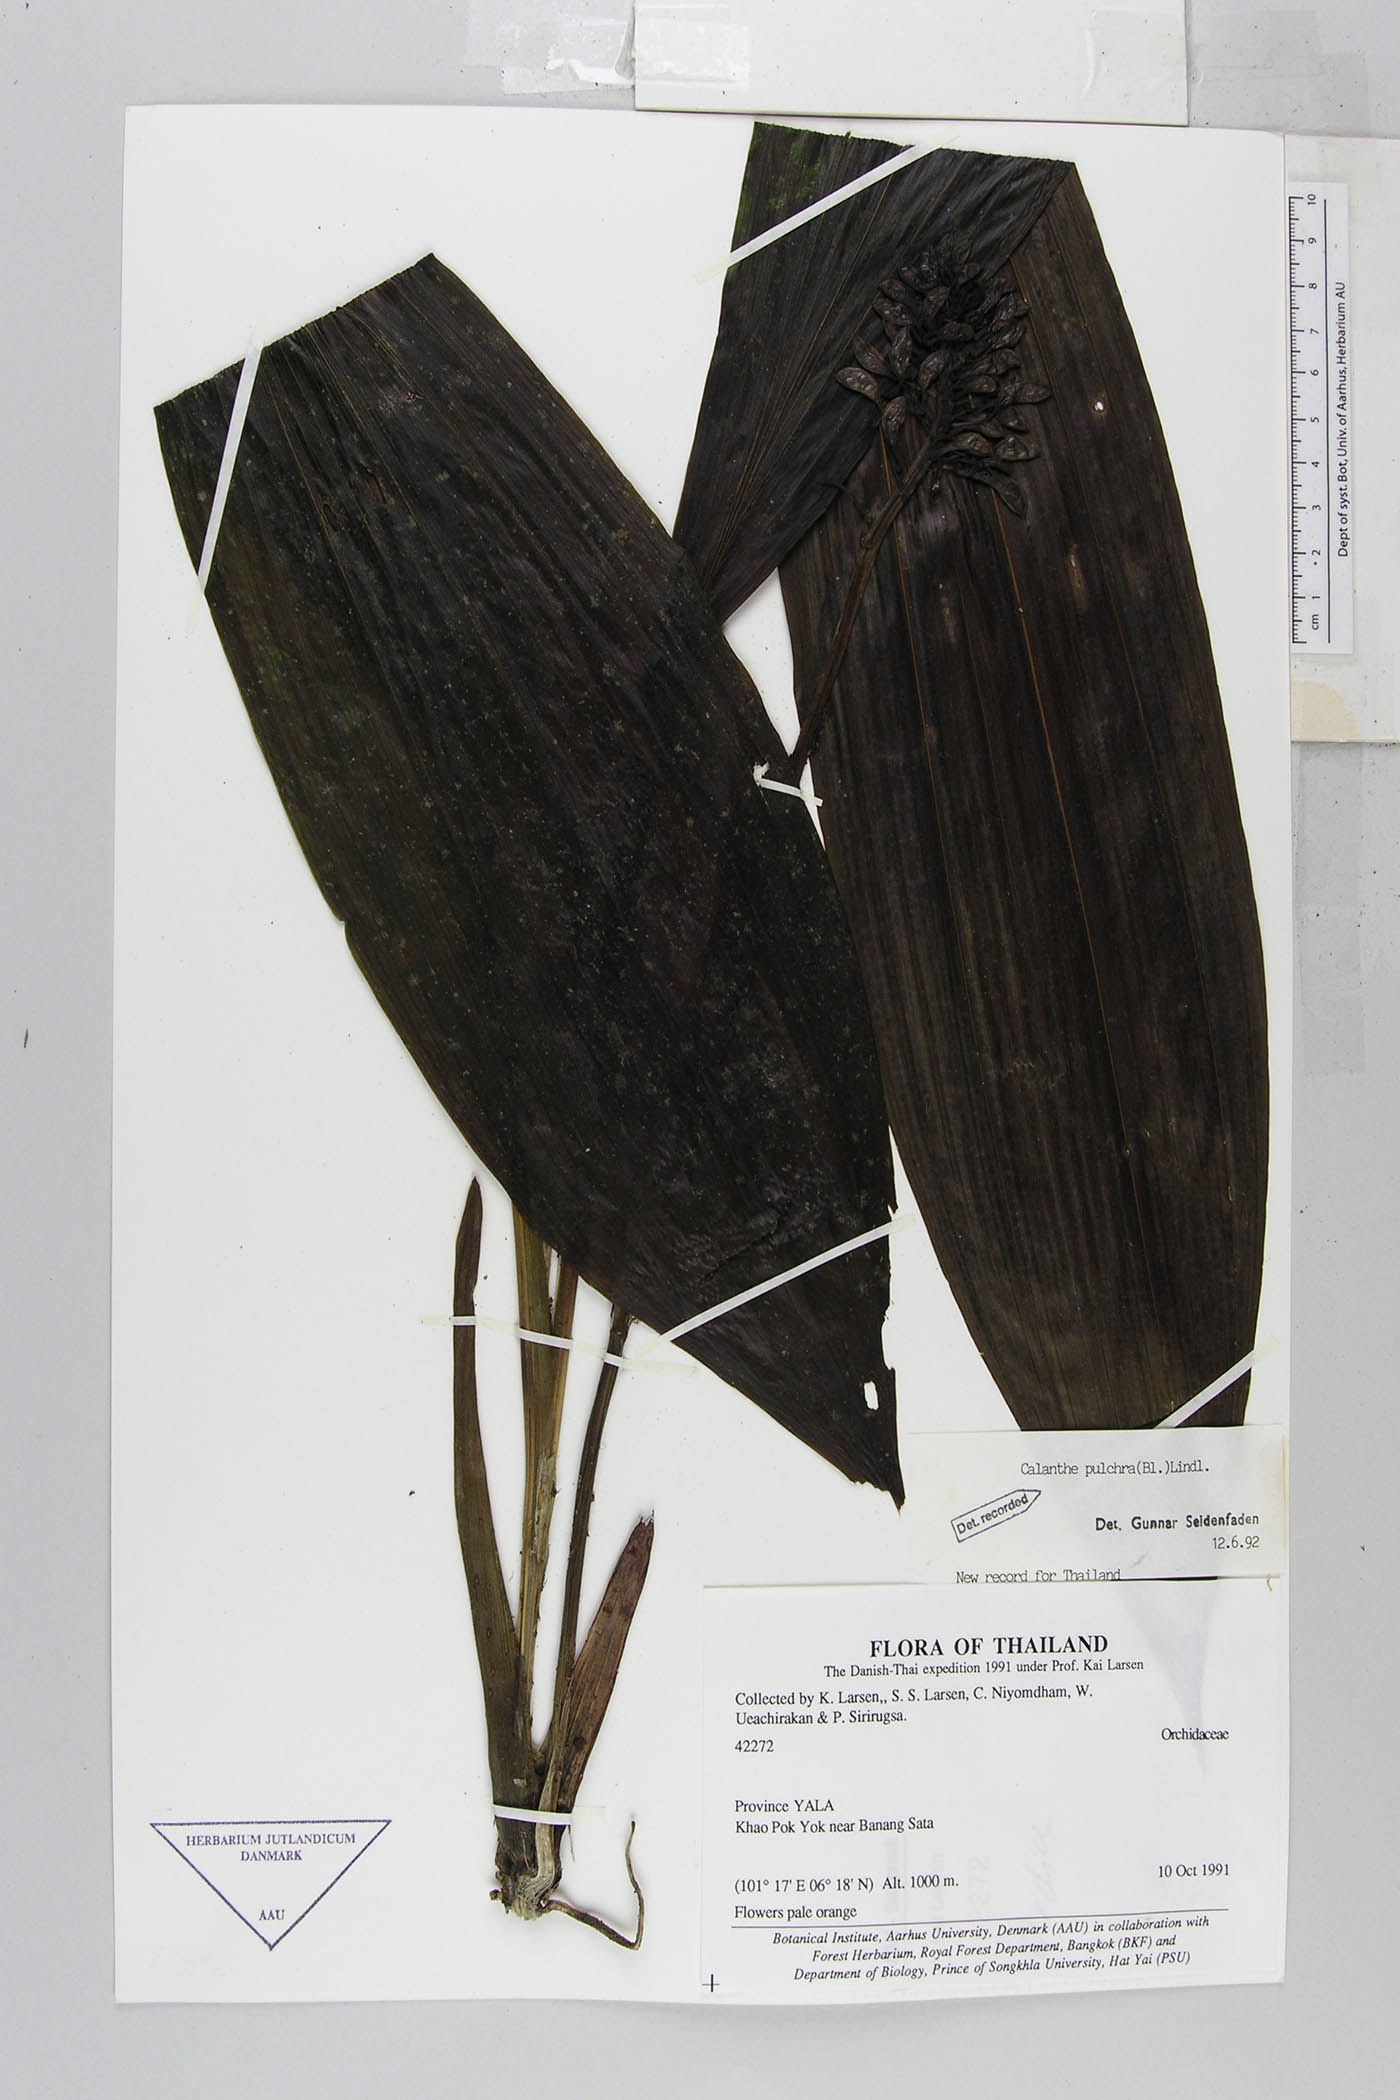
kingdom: Plantae
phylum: Tracheophyta
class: Liliopsida
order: Asparagales
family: Orchidaceae
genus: Calanthe
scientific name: Calanthe pulchra
